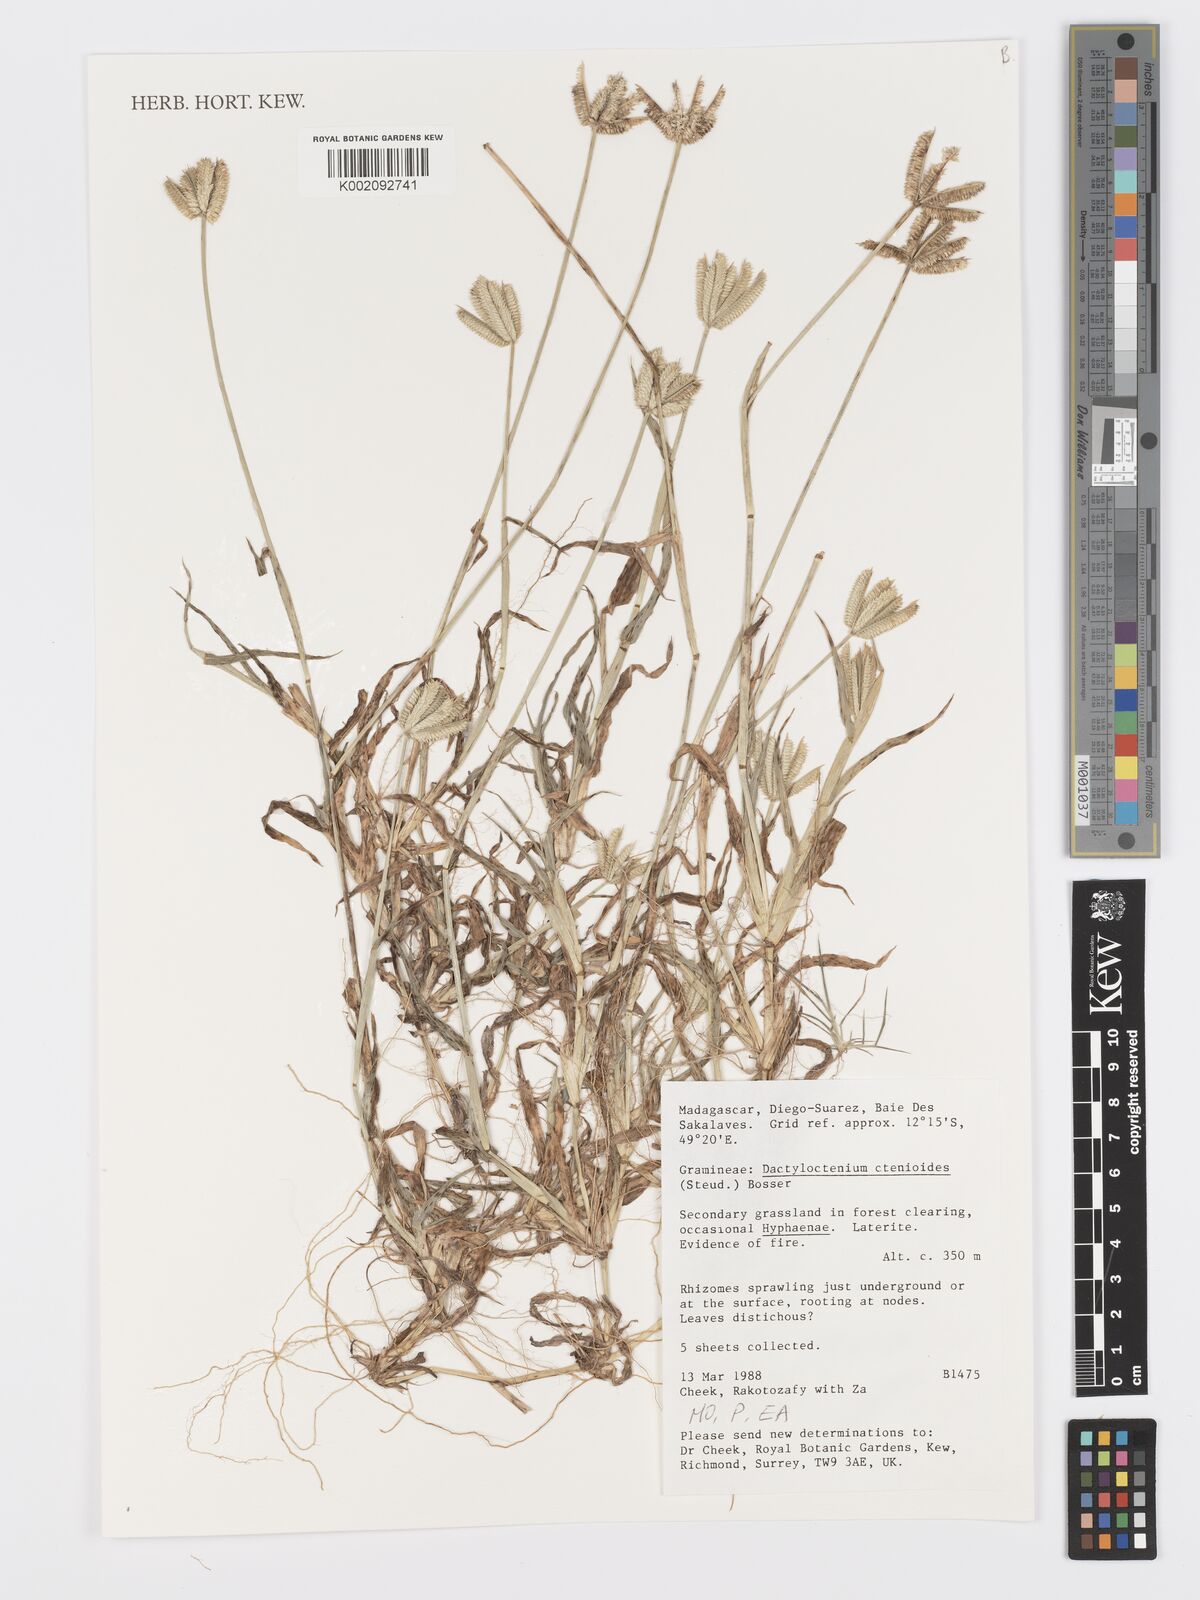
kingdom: Plantae
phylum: Tracheophyta
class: Liliopsida
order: Poales
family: Poaceae
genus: Dactyloctenium
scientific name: Dactyloctenium ctenoides
